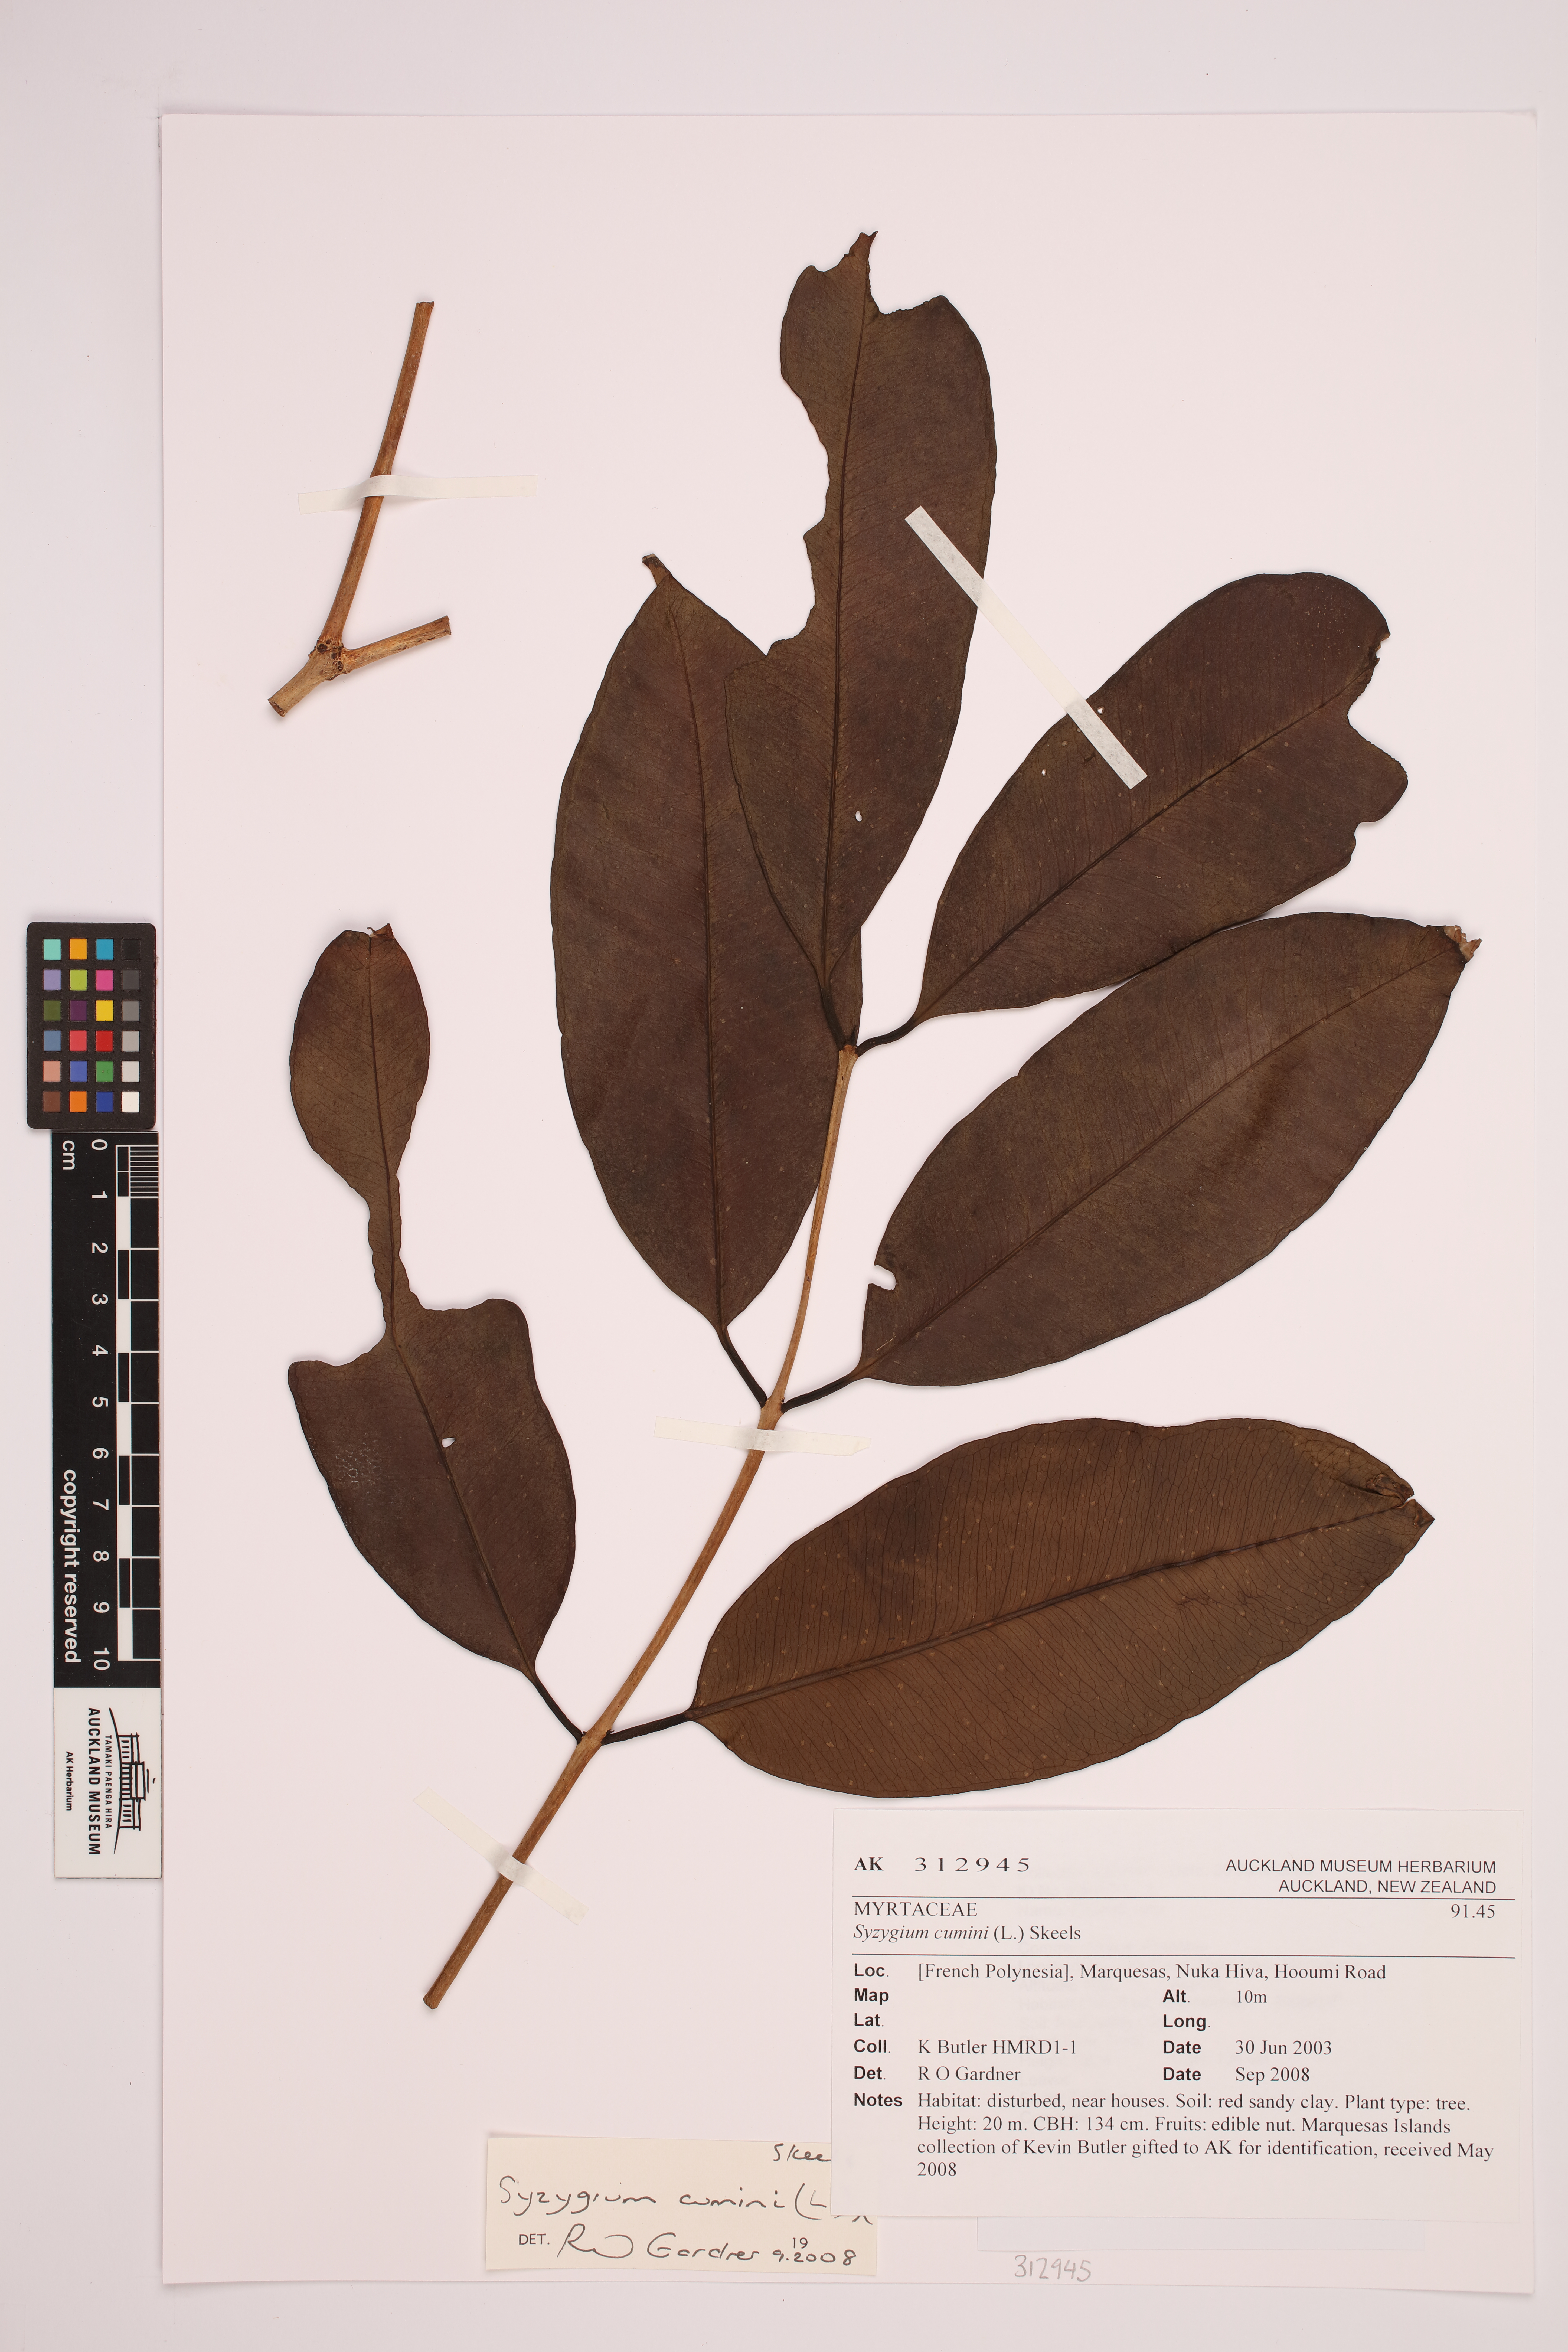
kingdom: Plantae
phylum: Tracheophyta
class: Magnoliopsida
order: Myrtales
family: Myrtaceae
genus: Syzygium
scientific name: Syzygium cumini
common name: Java plum
